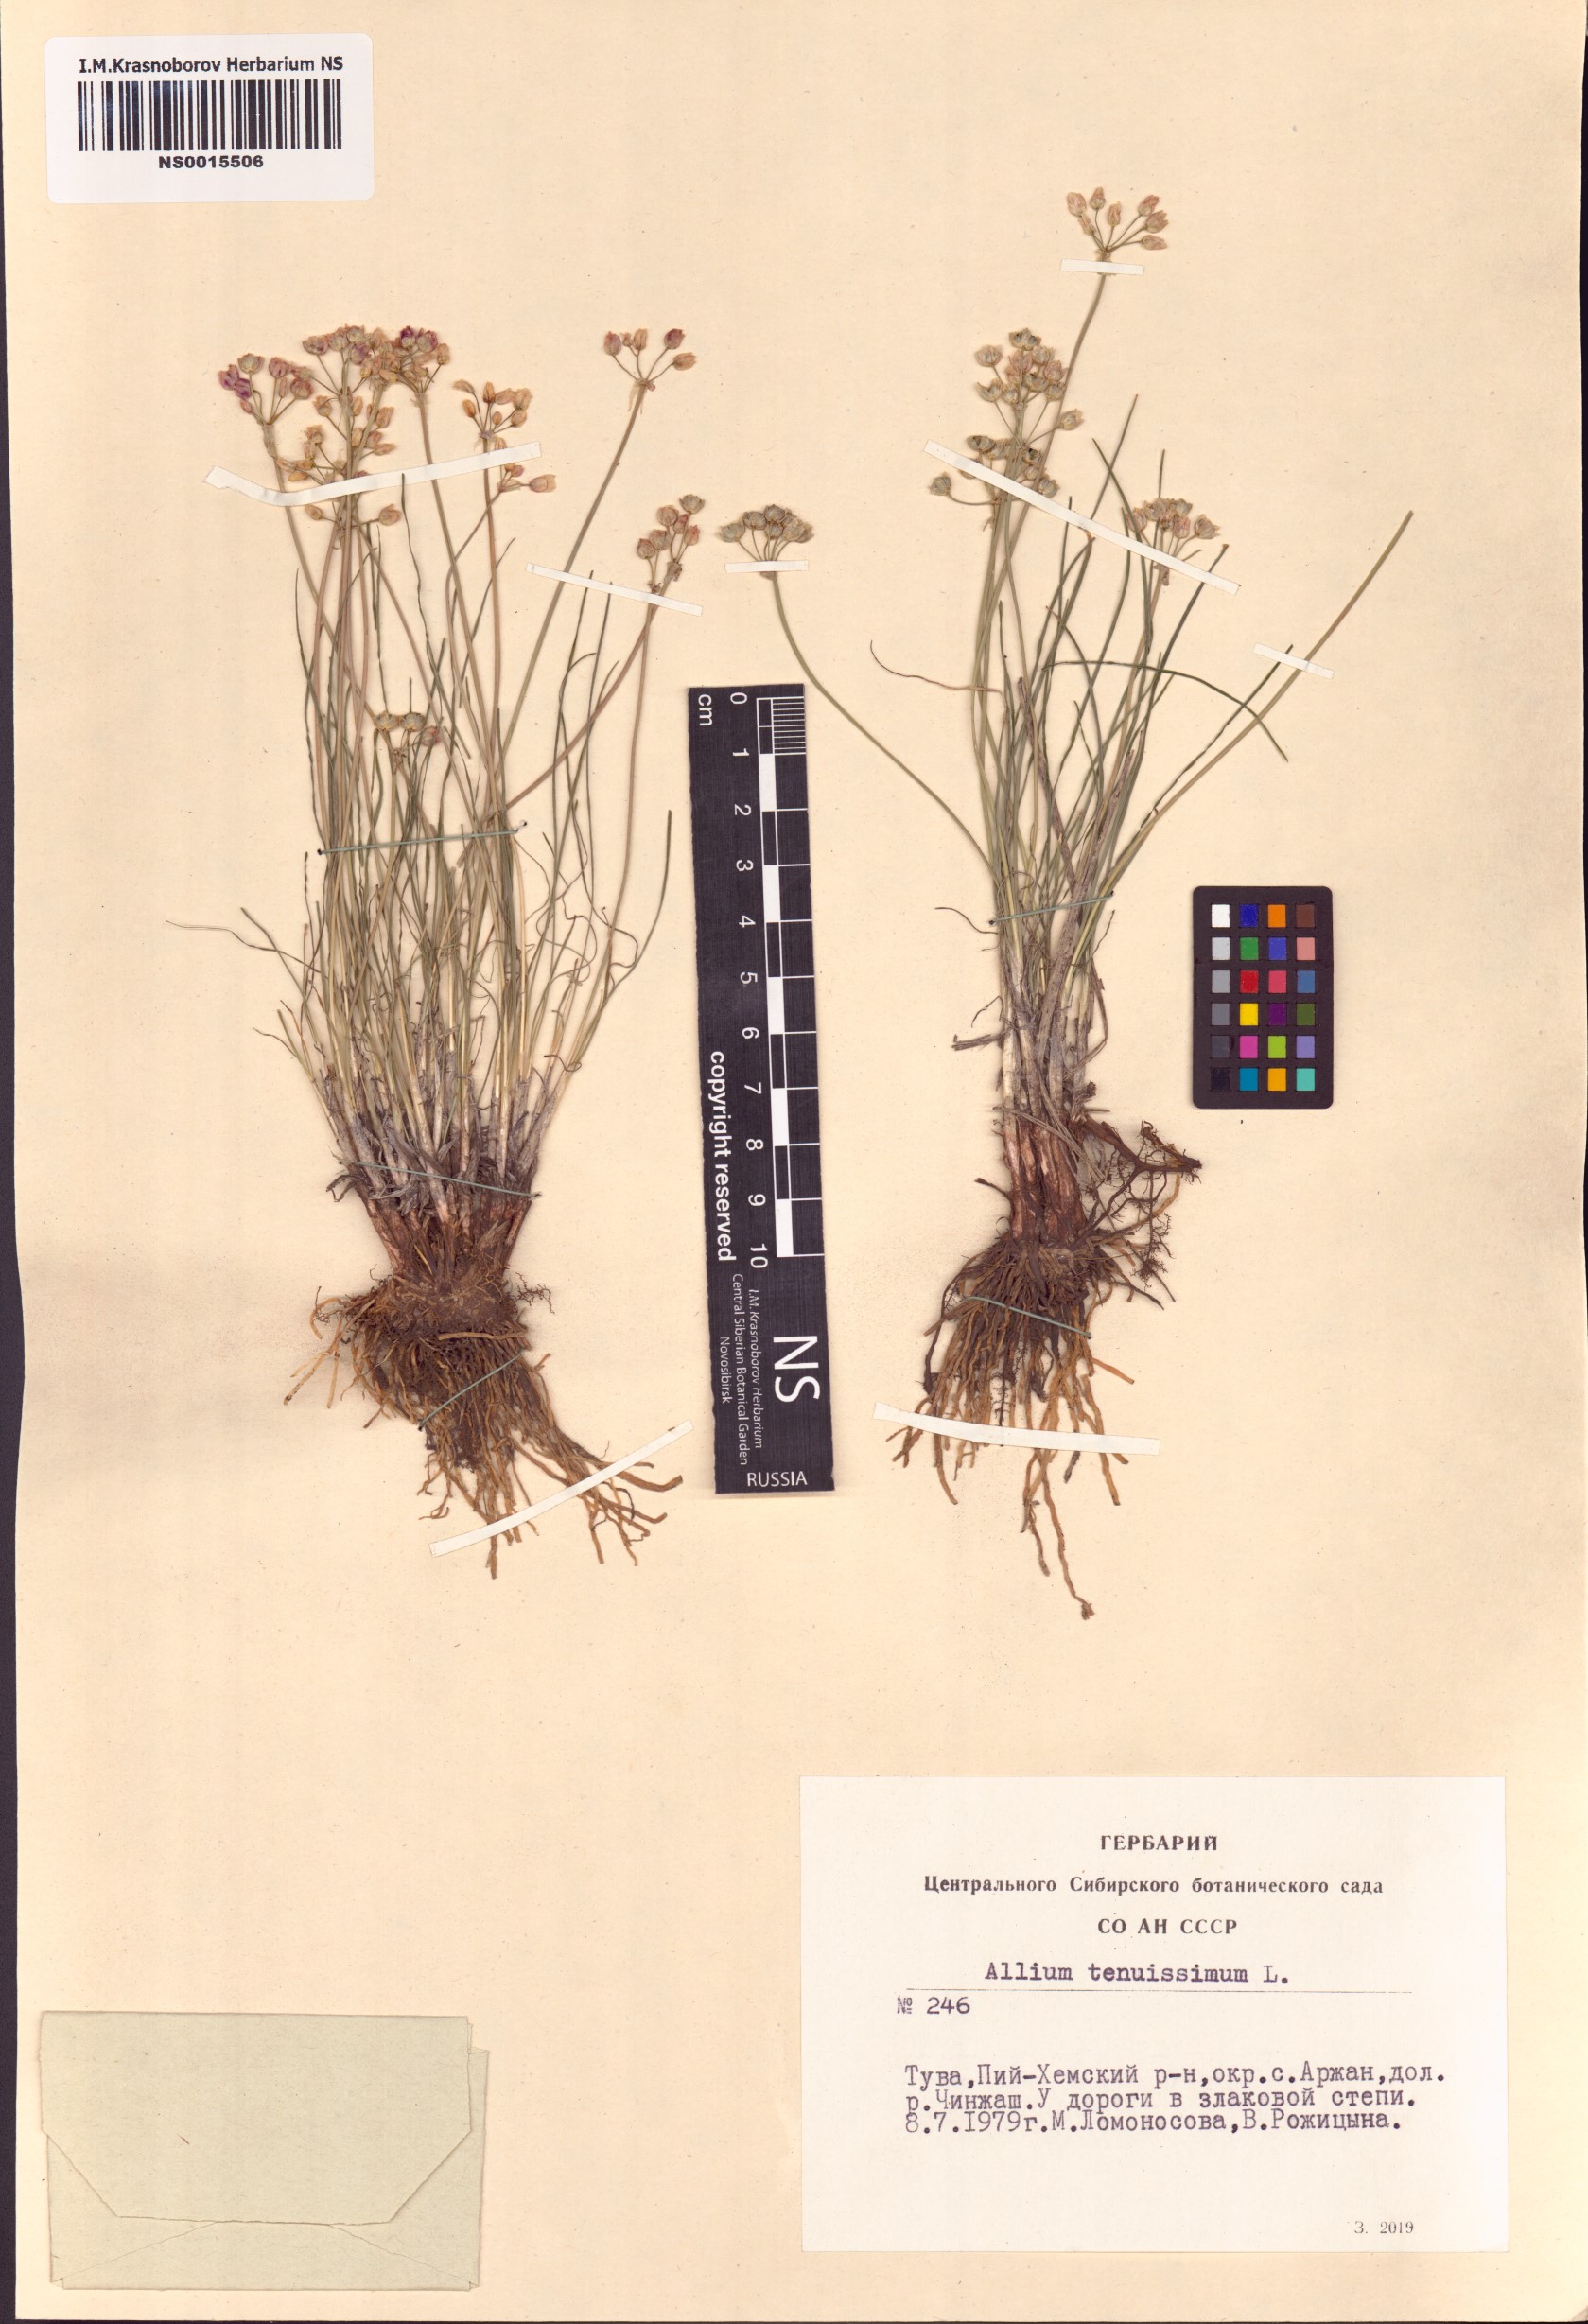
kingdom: Plantae
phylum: Tracheophyta
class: Liliopsida
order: Asparagales
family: Amaryllidaceae
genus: Allium
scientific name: Allium tenuissimum
